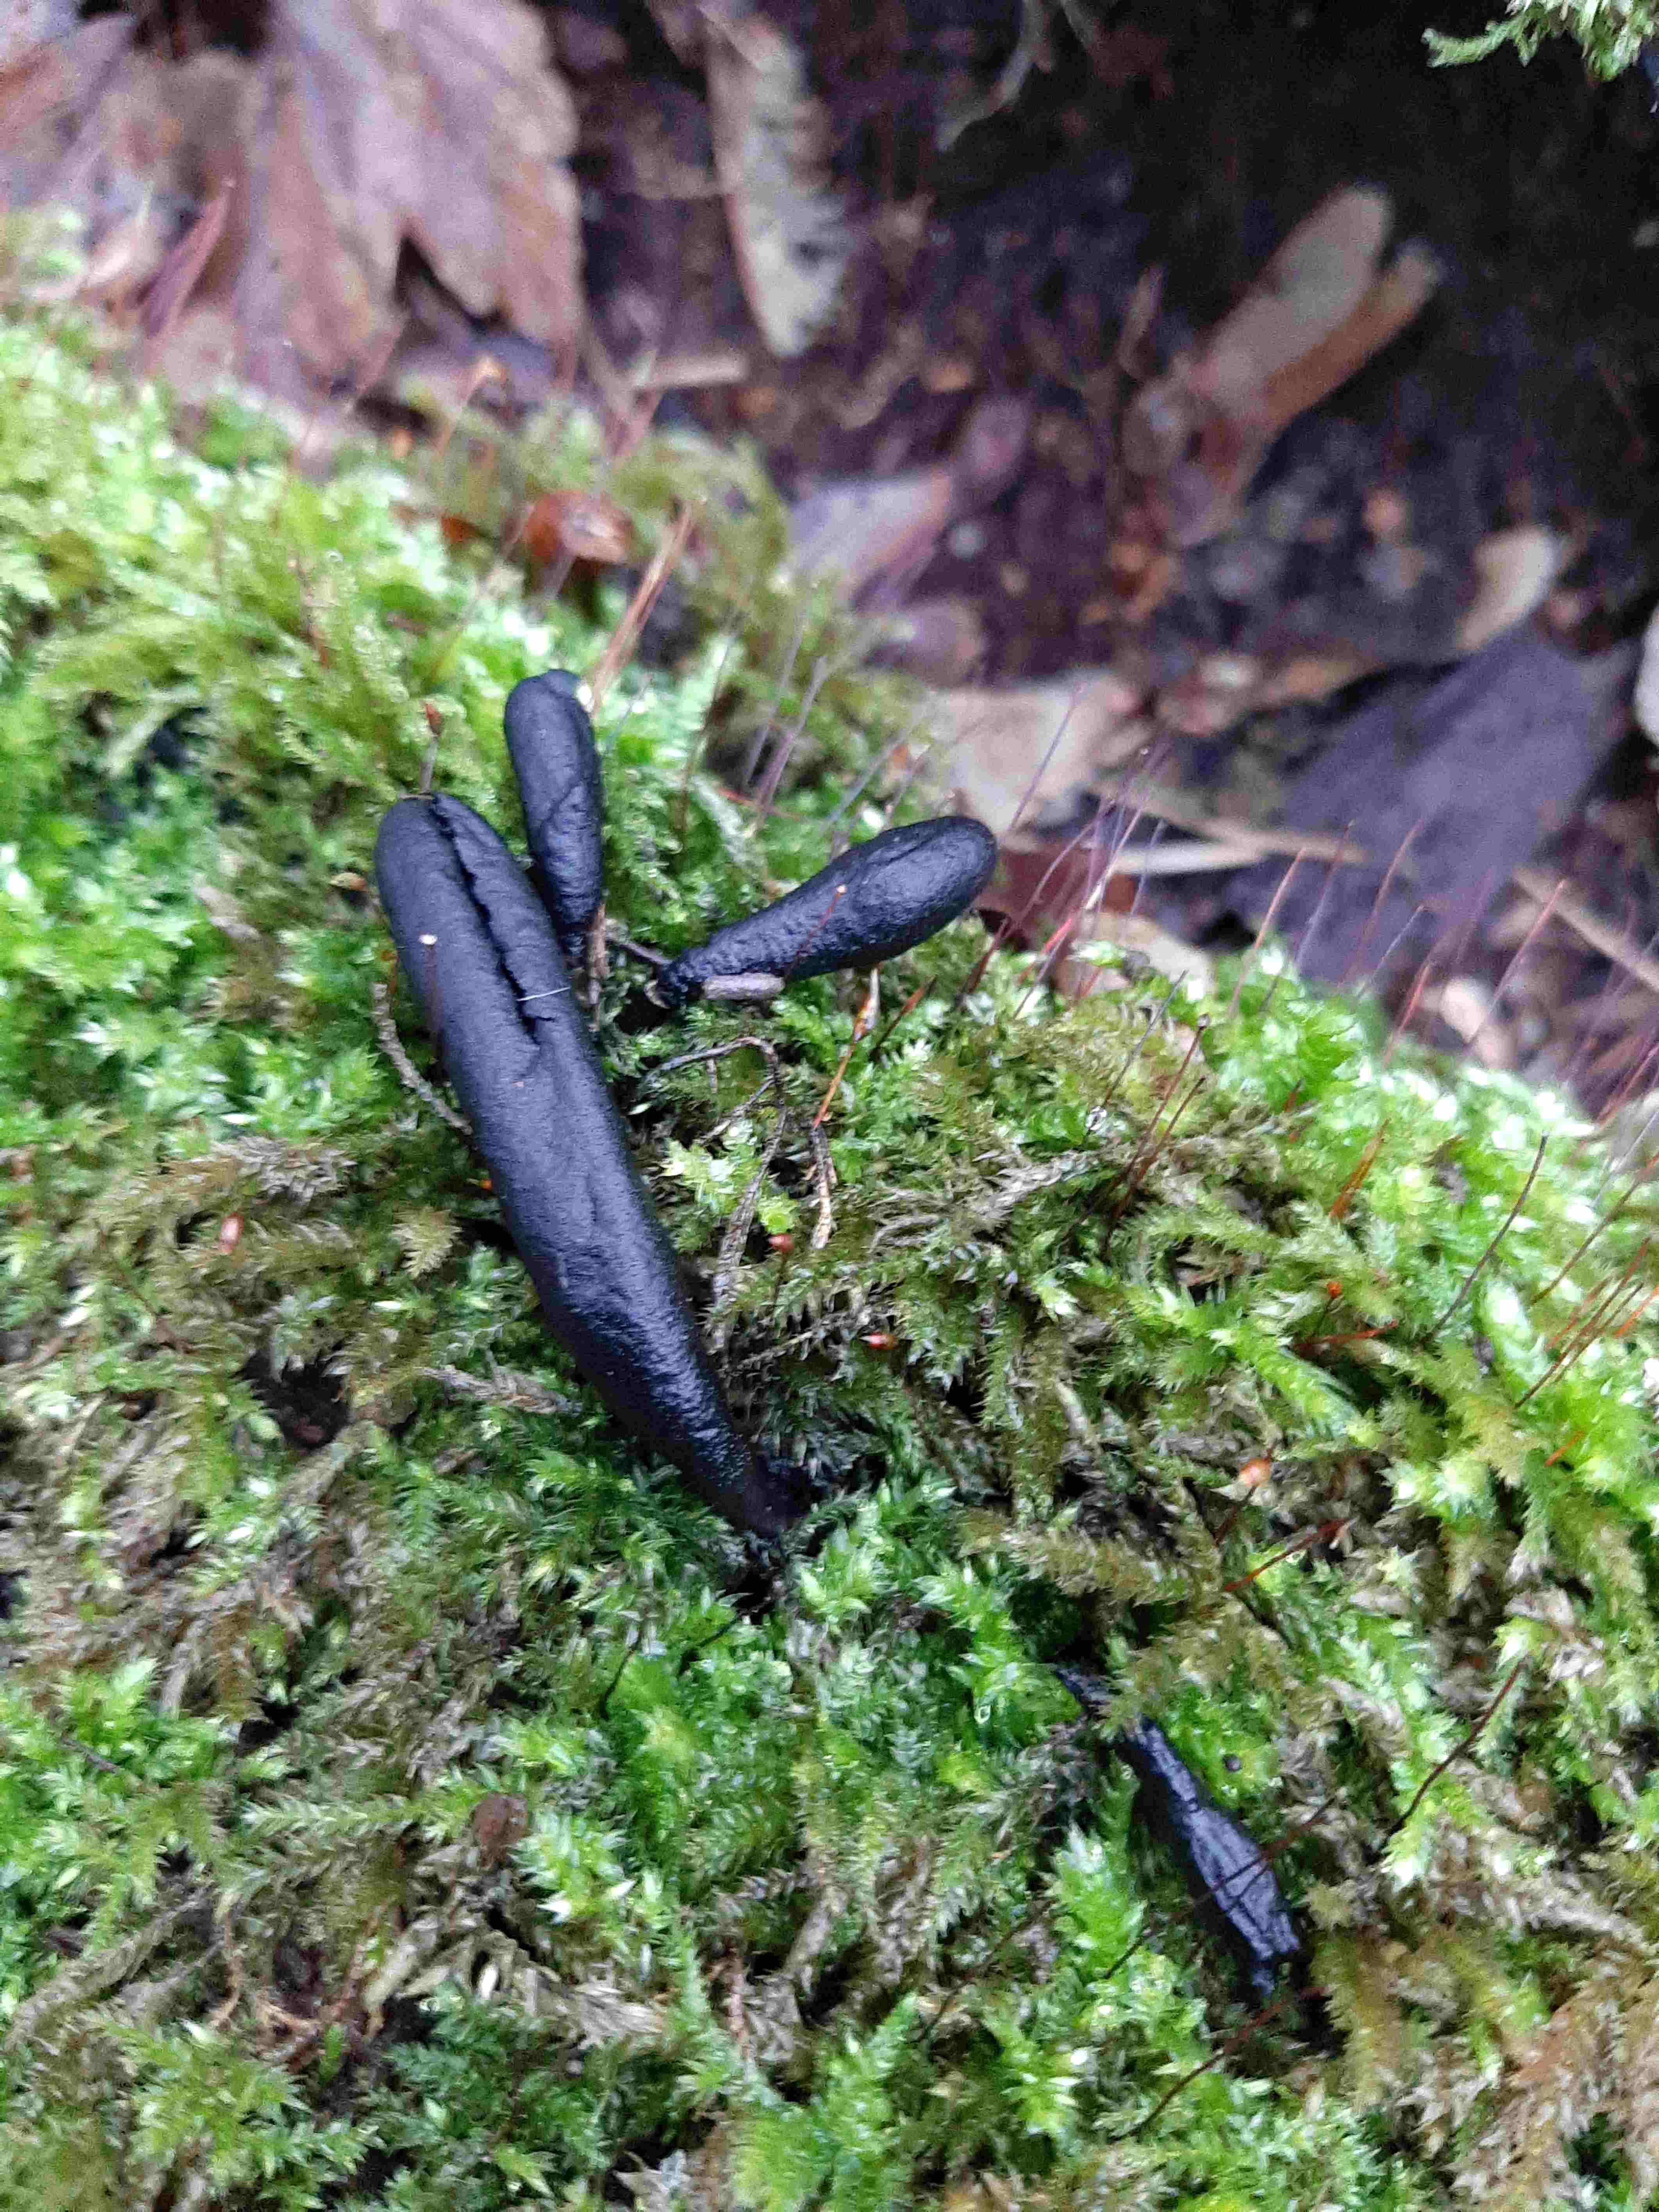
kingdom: Fungi
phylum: Ascomycota
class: Sordariomycetes
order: Xylariales
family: Xylariaceae
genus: Xylaria
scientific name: Xylaria longipes
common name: slank stødsvamp
